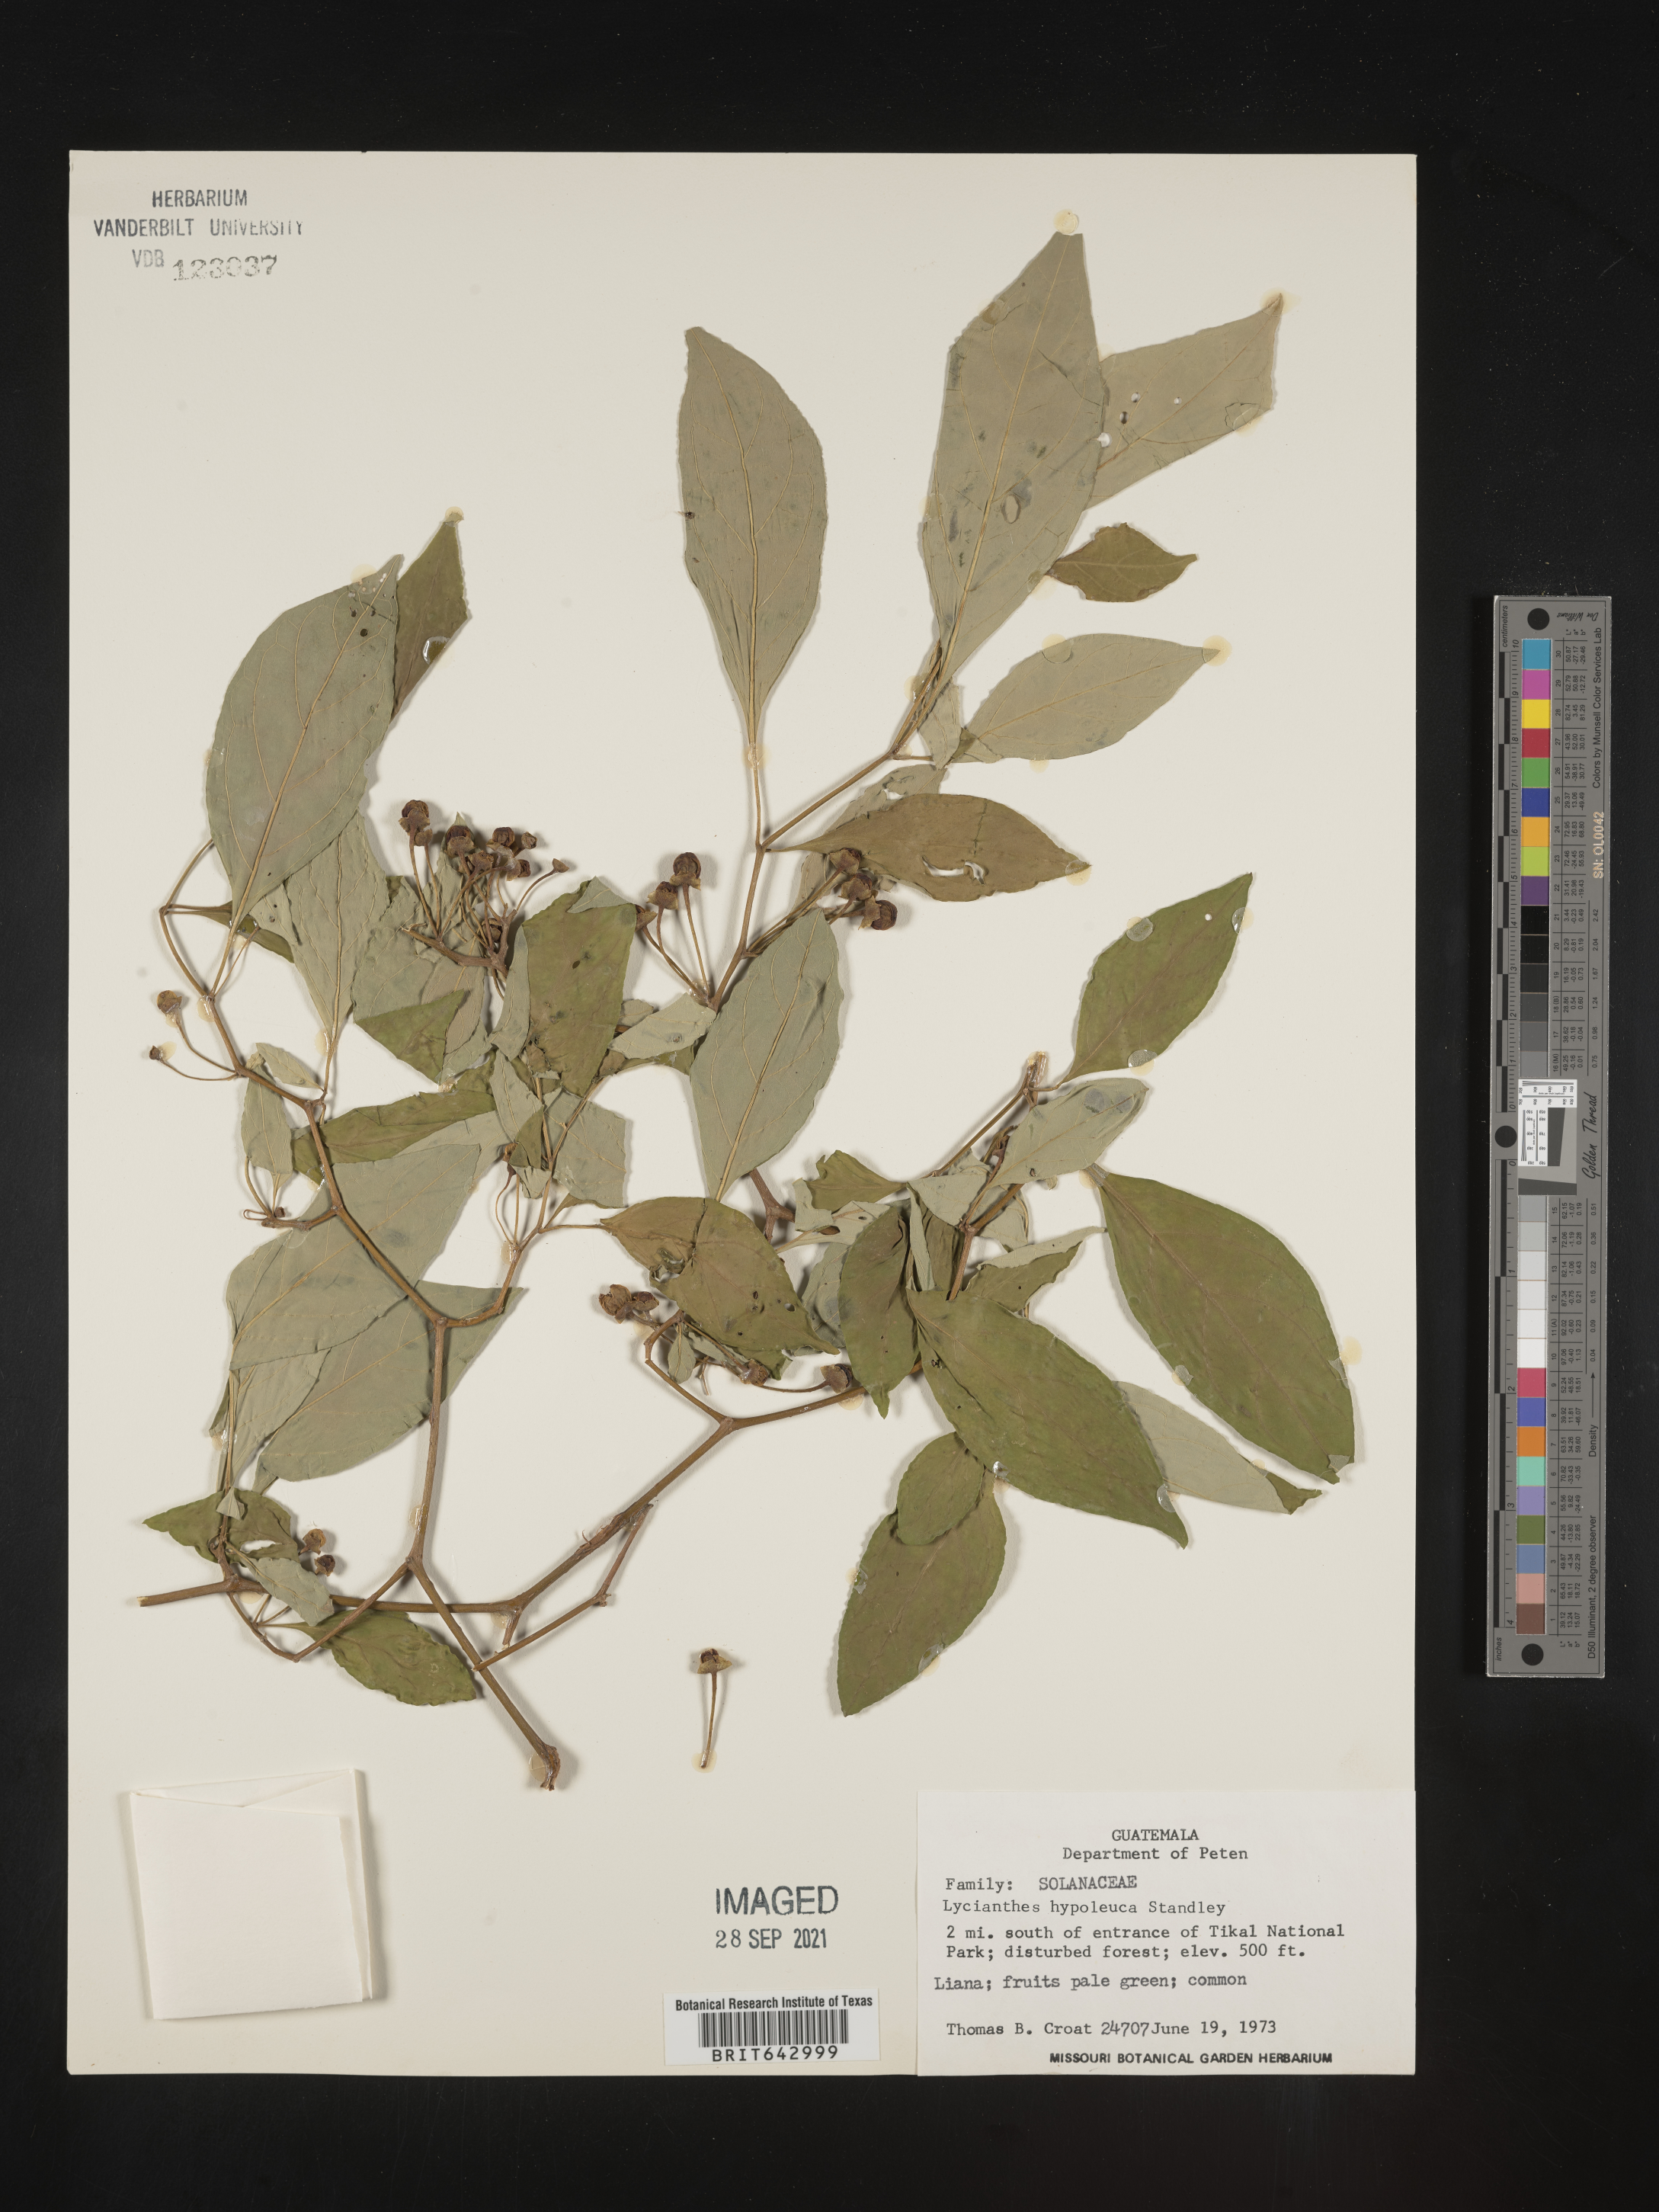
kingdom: Plantae
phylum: Tracheophyta
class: Magnoliopsida
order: Solanales
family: Solanaceae
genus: Lycianthes
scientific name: Lycianthes
